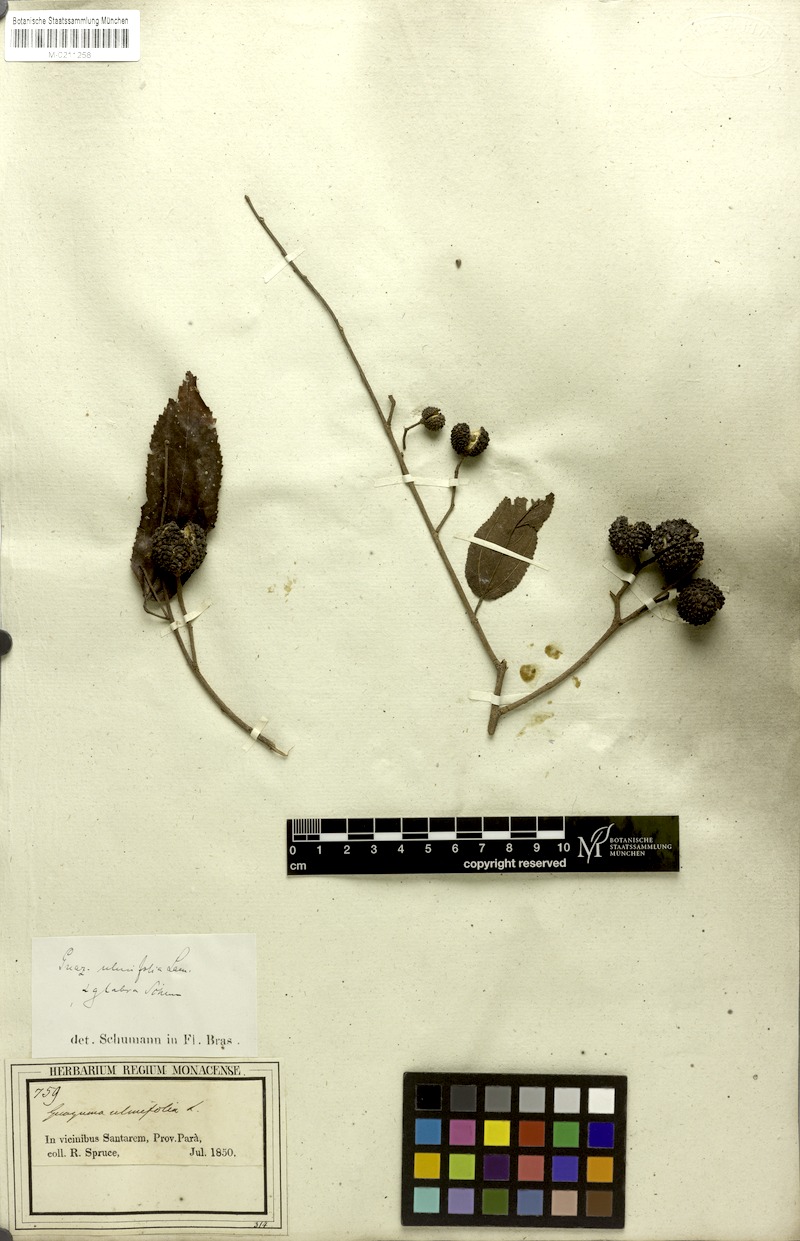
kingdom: Plantae
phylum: Tracheophyta
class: Magnoliopsida
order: Malvales
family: Malvaceae
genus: Guazuma
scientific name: Guazuma ulmifolia
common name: Bastard-cedar
